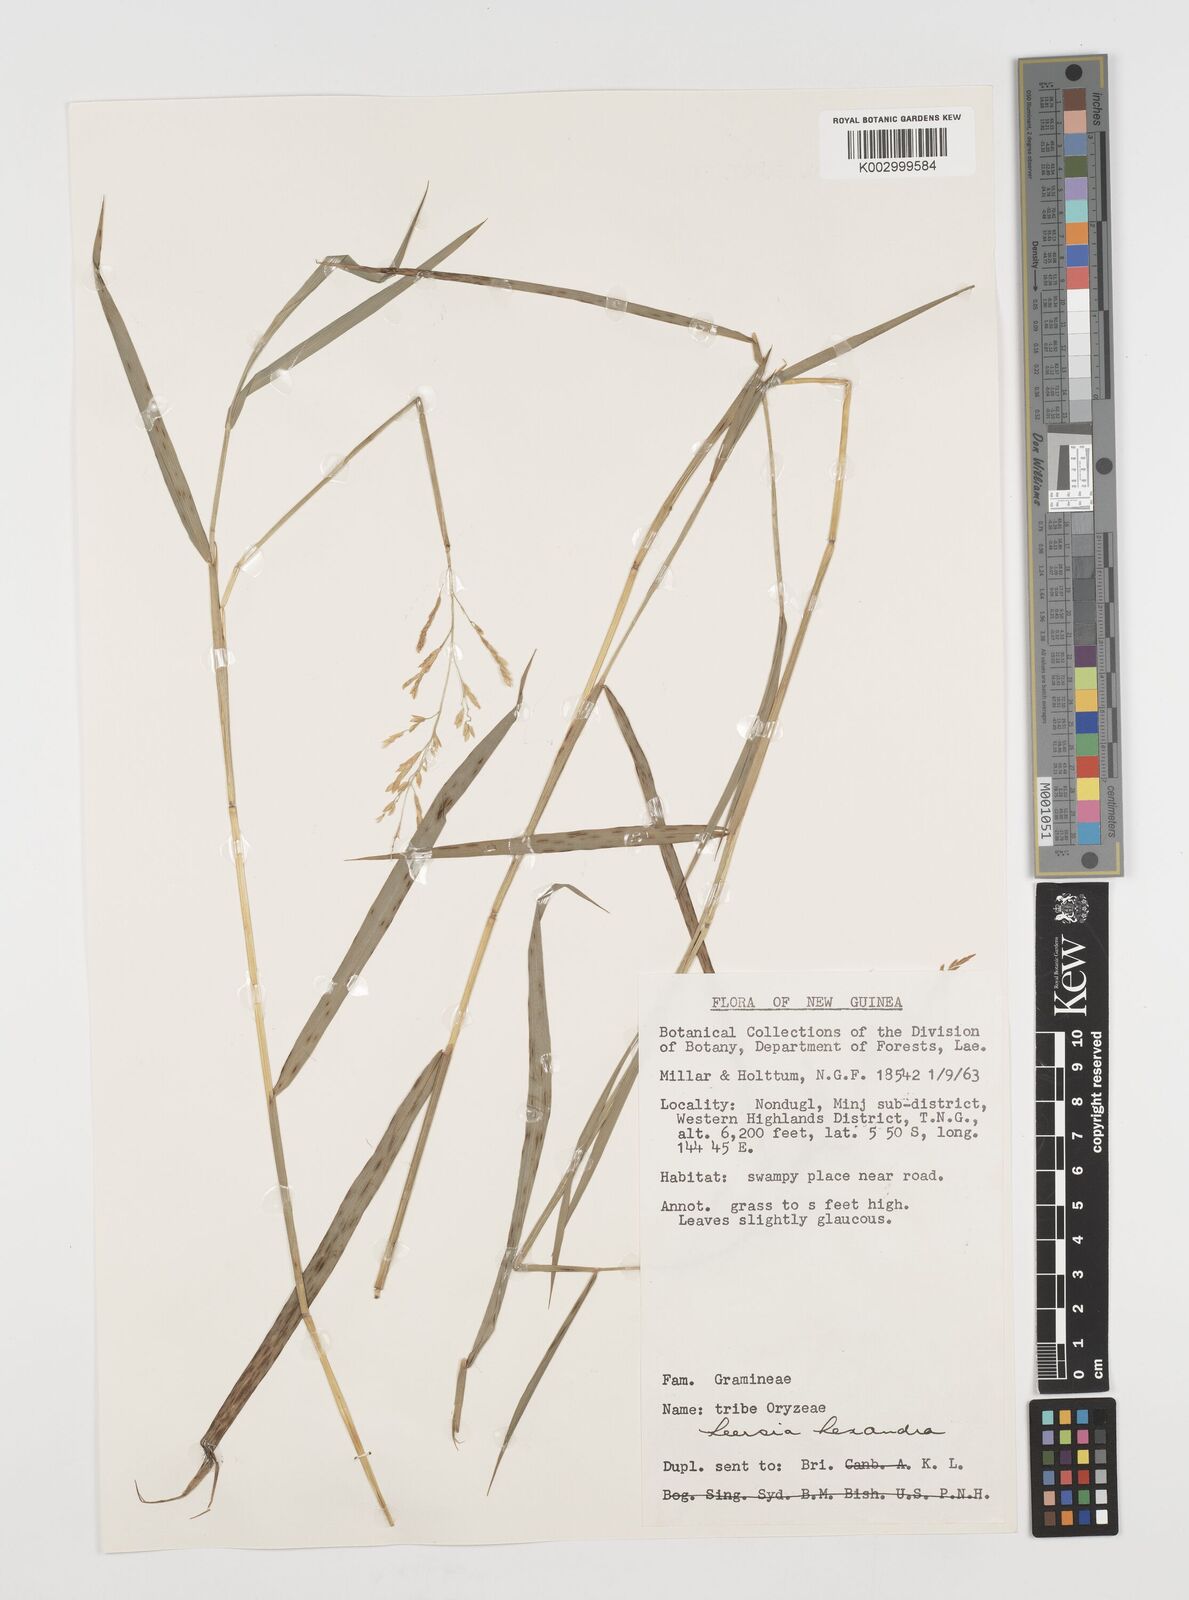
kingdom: Plantae
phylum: Tracheophyta
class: Liliopsida
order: Poales
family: Poaceae
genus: Leersia
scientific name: Leersia hexandra
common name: Southern cut grass
